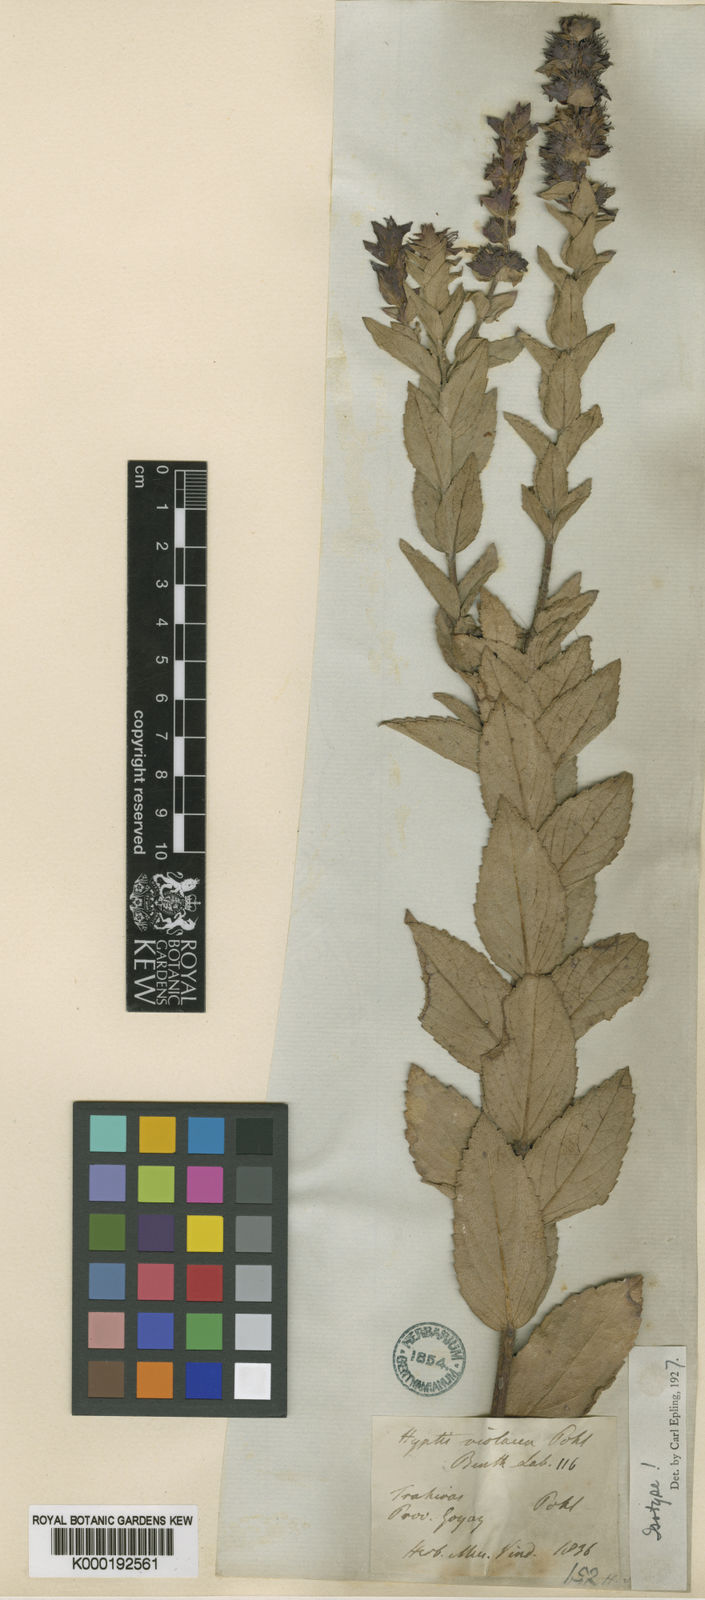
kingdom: Plantae
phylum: Tracheophyta
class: Magnoliopsida
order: Lamiales
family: Lamiaceae
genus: Cantinoa
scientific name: Cantinoa violacea
